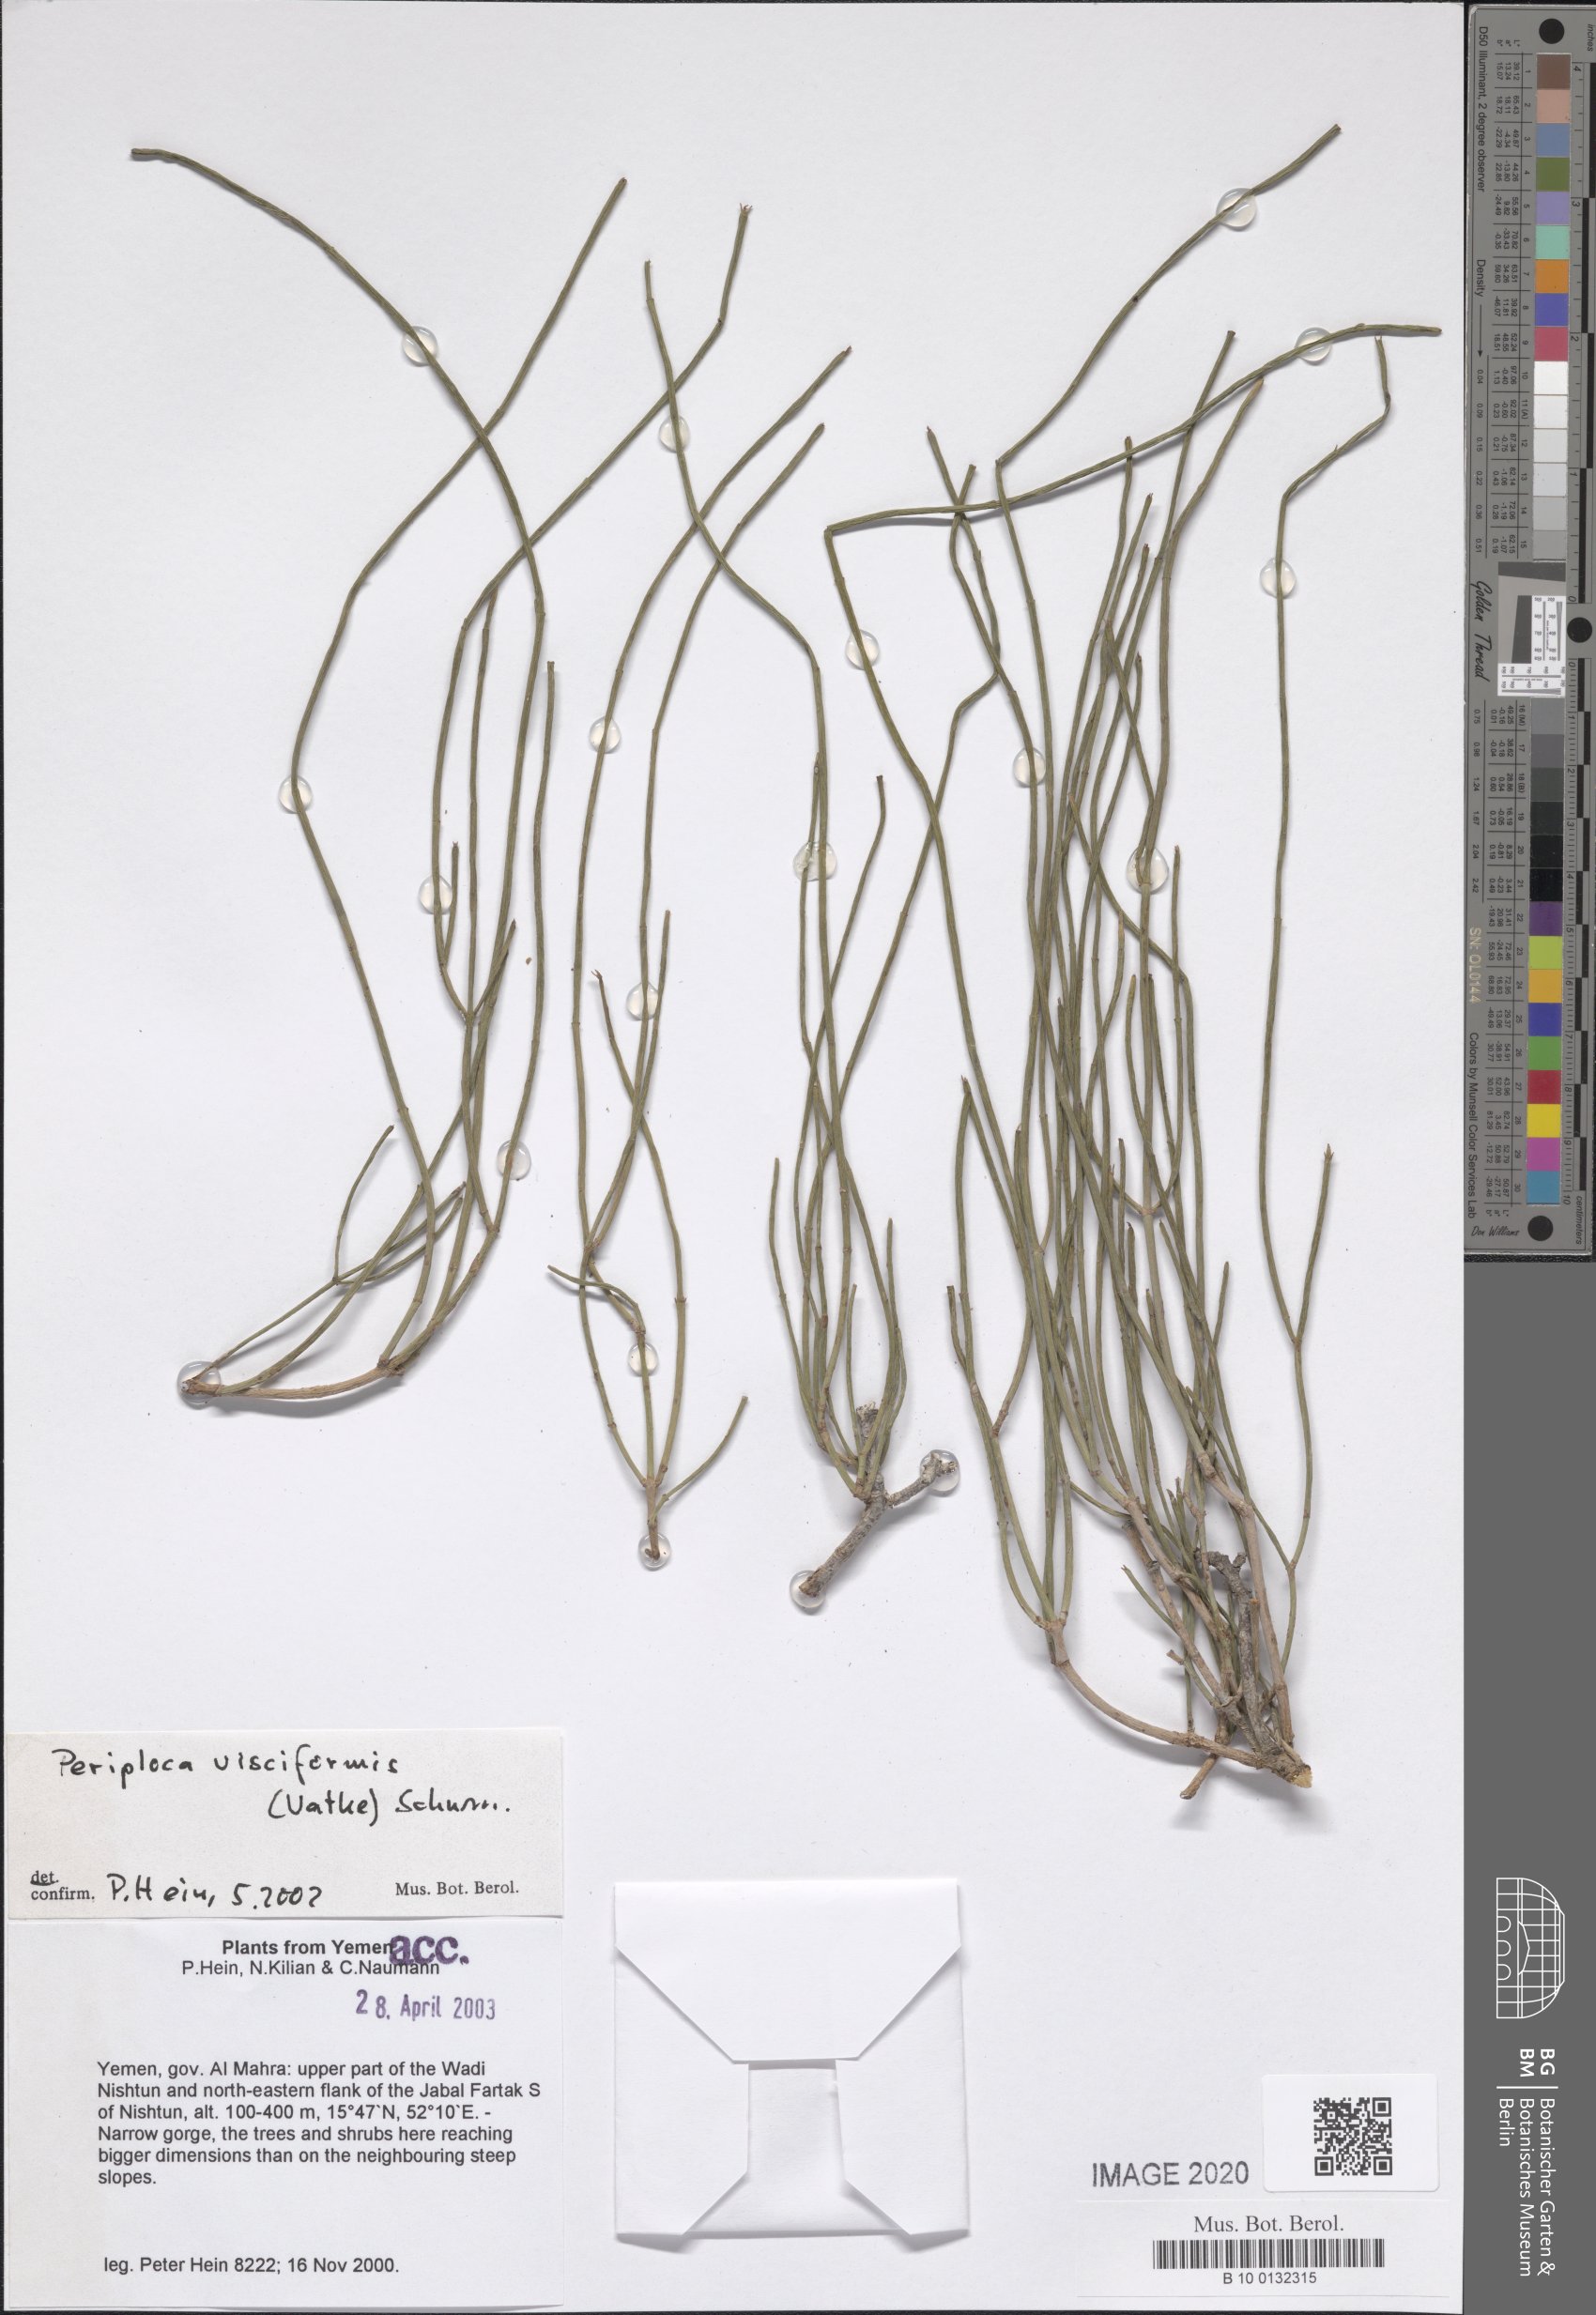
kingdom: Plantae
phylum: Tracheophyta
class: Magnoliopsida
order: Gentianales
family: Apocynaceae
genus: Periploca
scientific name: Periploca visciformis
